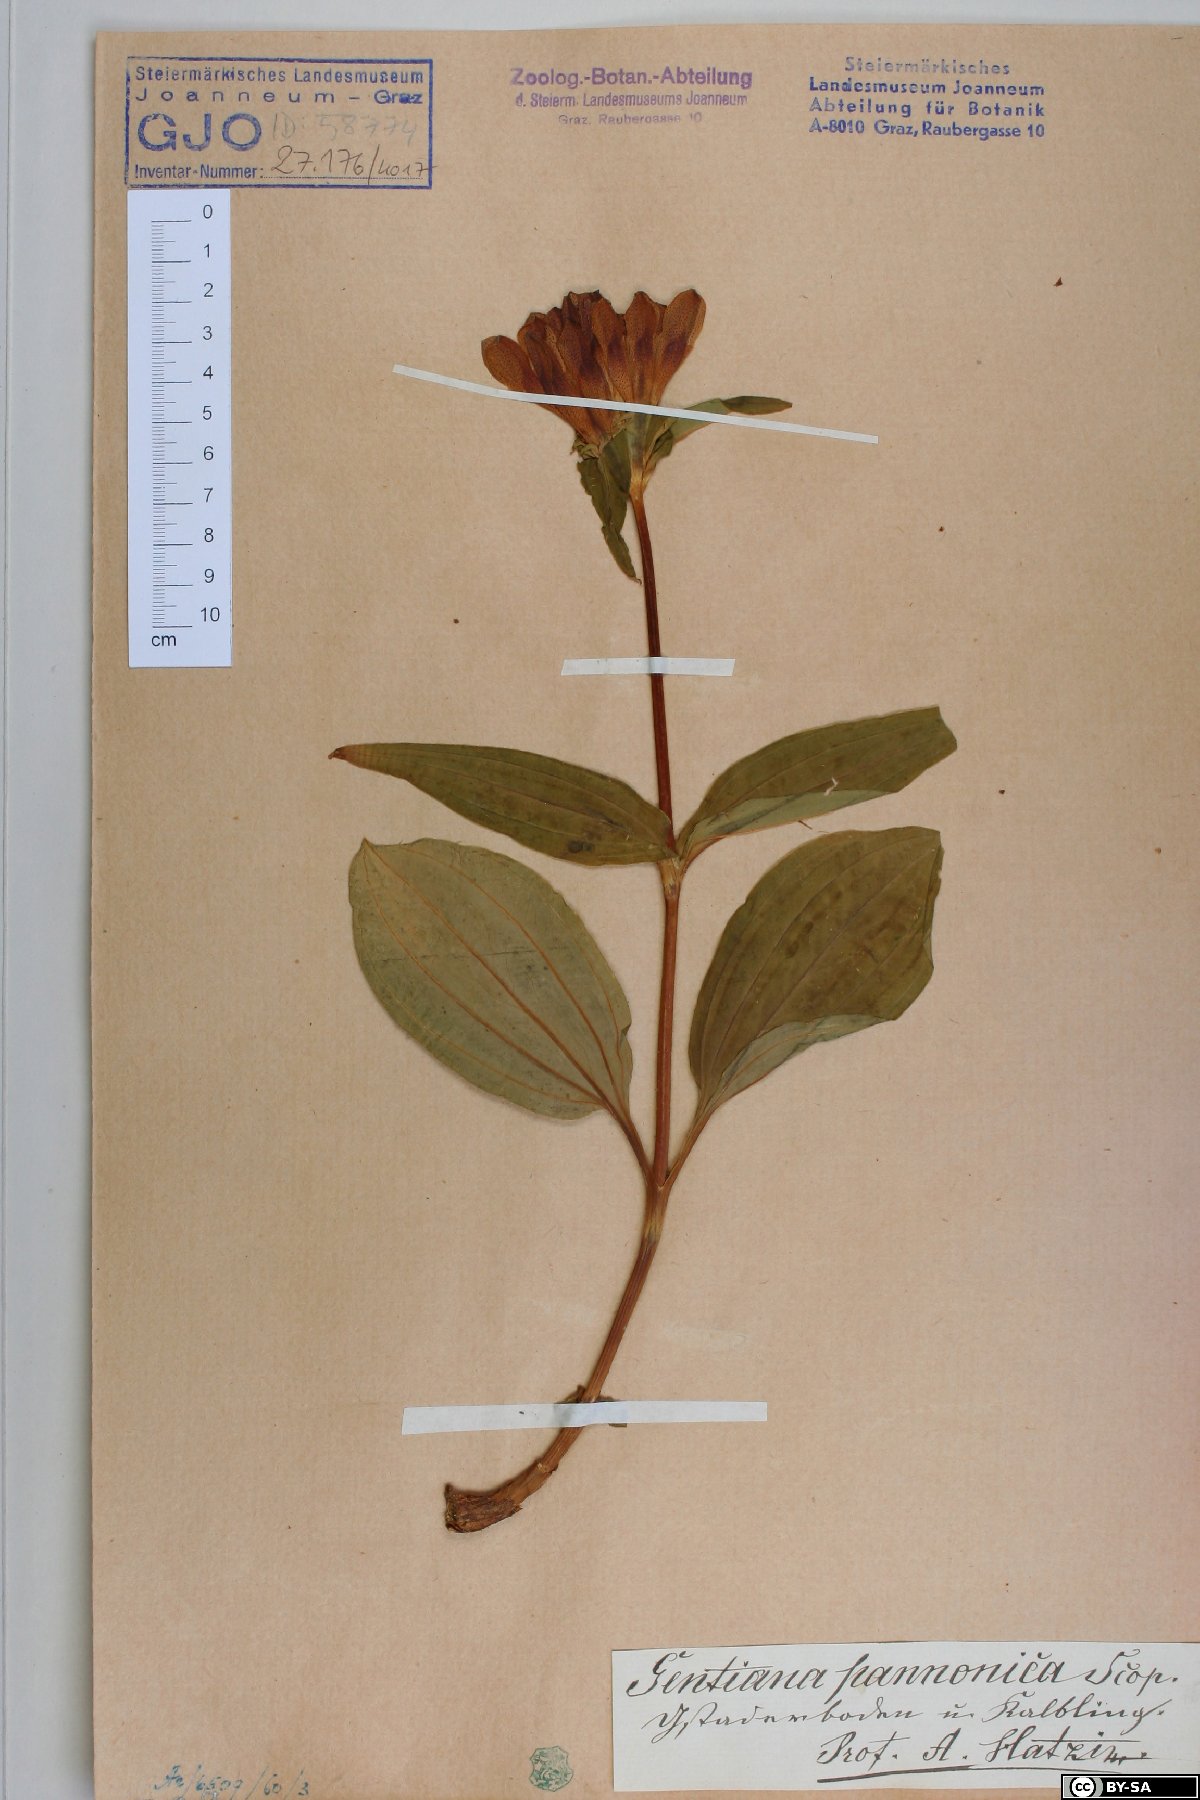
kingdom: Plantae
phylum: Tracheophyta
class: Magnoliopsida
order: Gentianales
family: Gentianaceae
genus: Gentiana
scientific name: Gentiana pannonica
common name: Hungarian gentian
